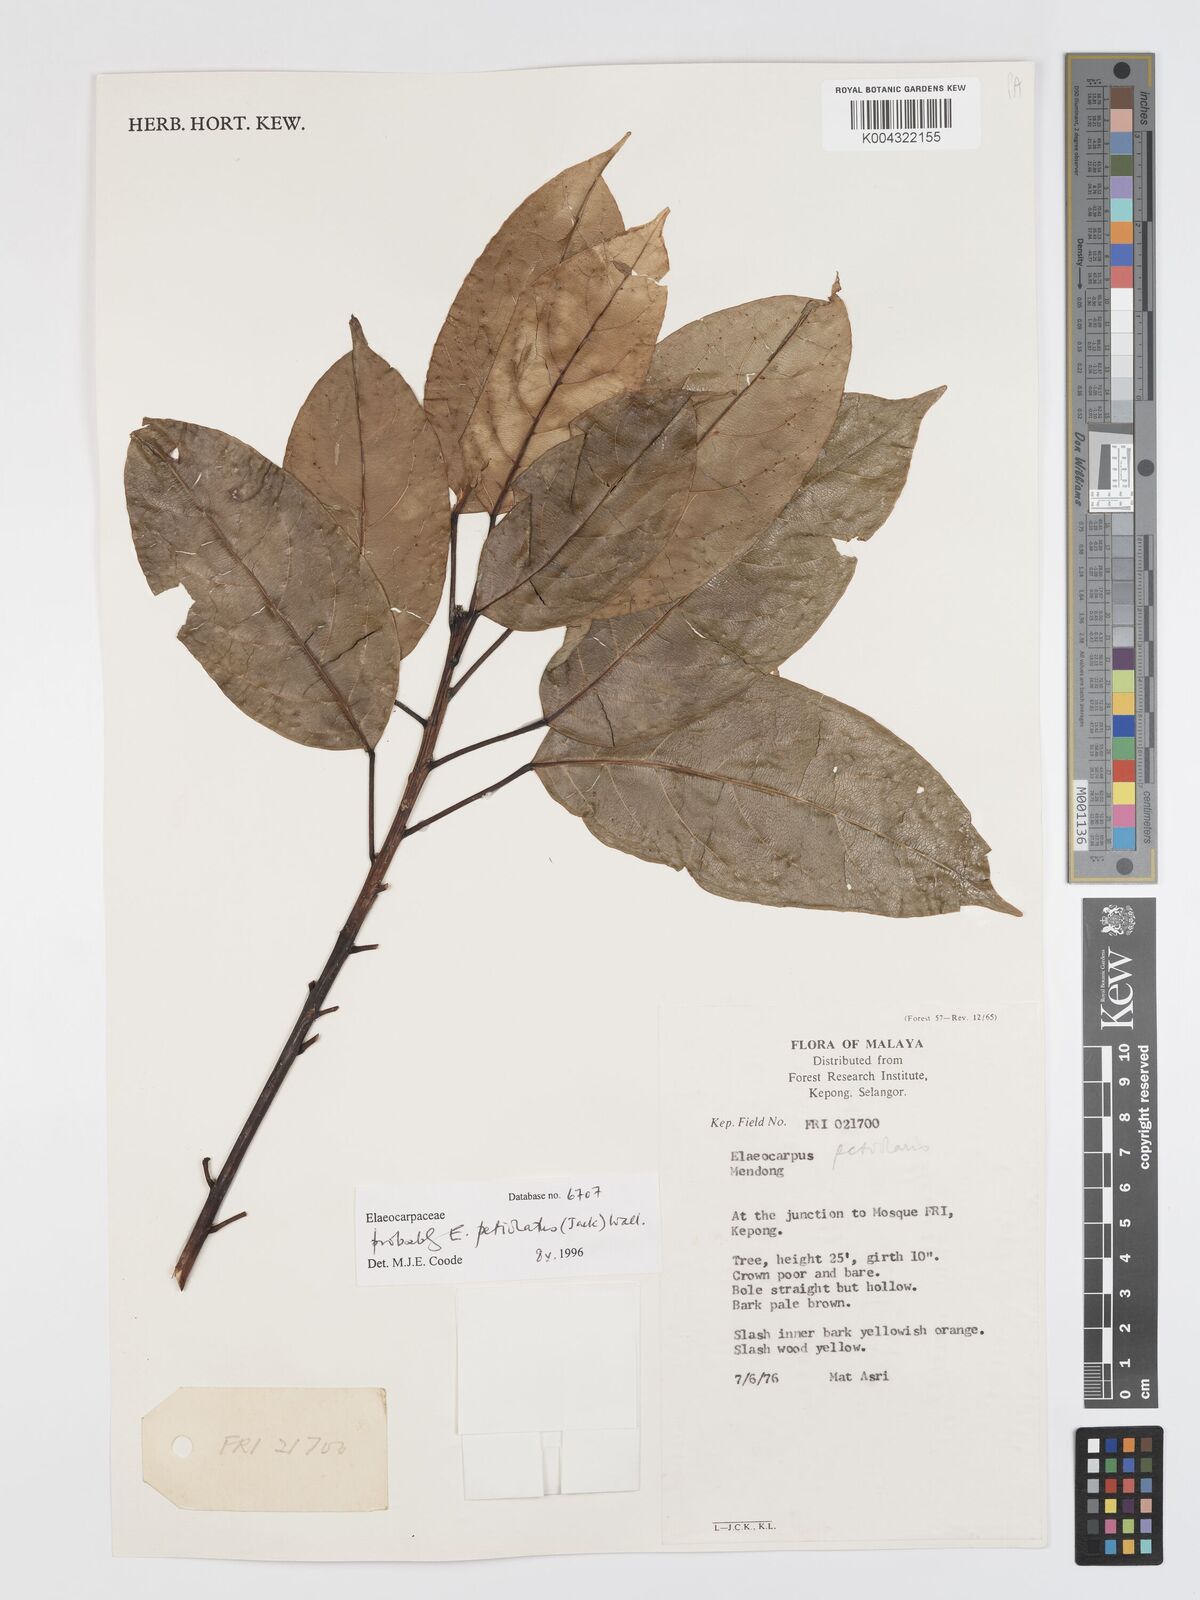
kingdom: Plantae
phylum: Tracheophyta
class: Magnoliopsida
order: Oxalidales
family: Elaeocarpaceae
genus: Elaeocarpus
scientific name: Elaeocarpus
